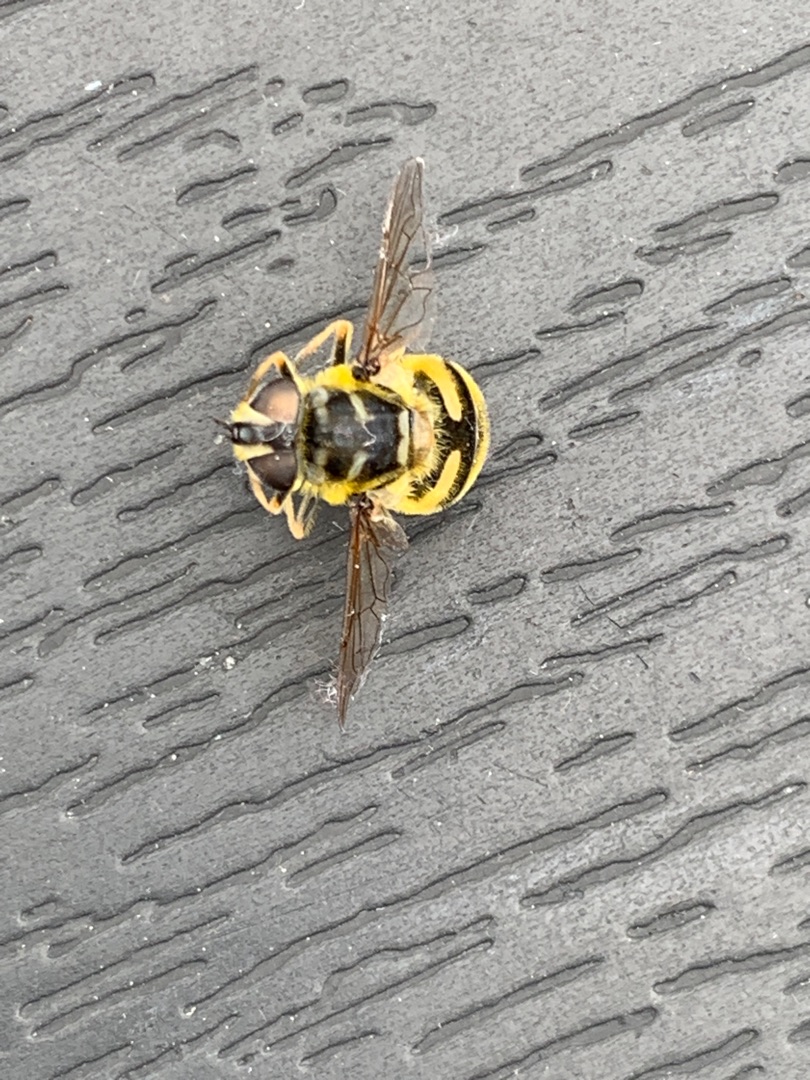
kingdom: Animalia
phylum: Arthropoda
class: Insecta
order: Diptera
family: Syrphidae
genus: Myathropa
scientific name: Myathropa florea
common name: Dødningehoved-svirreflue
